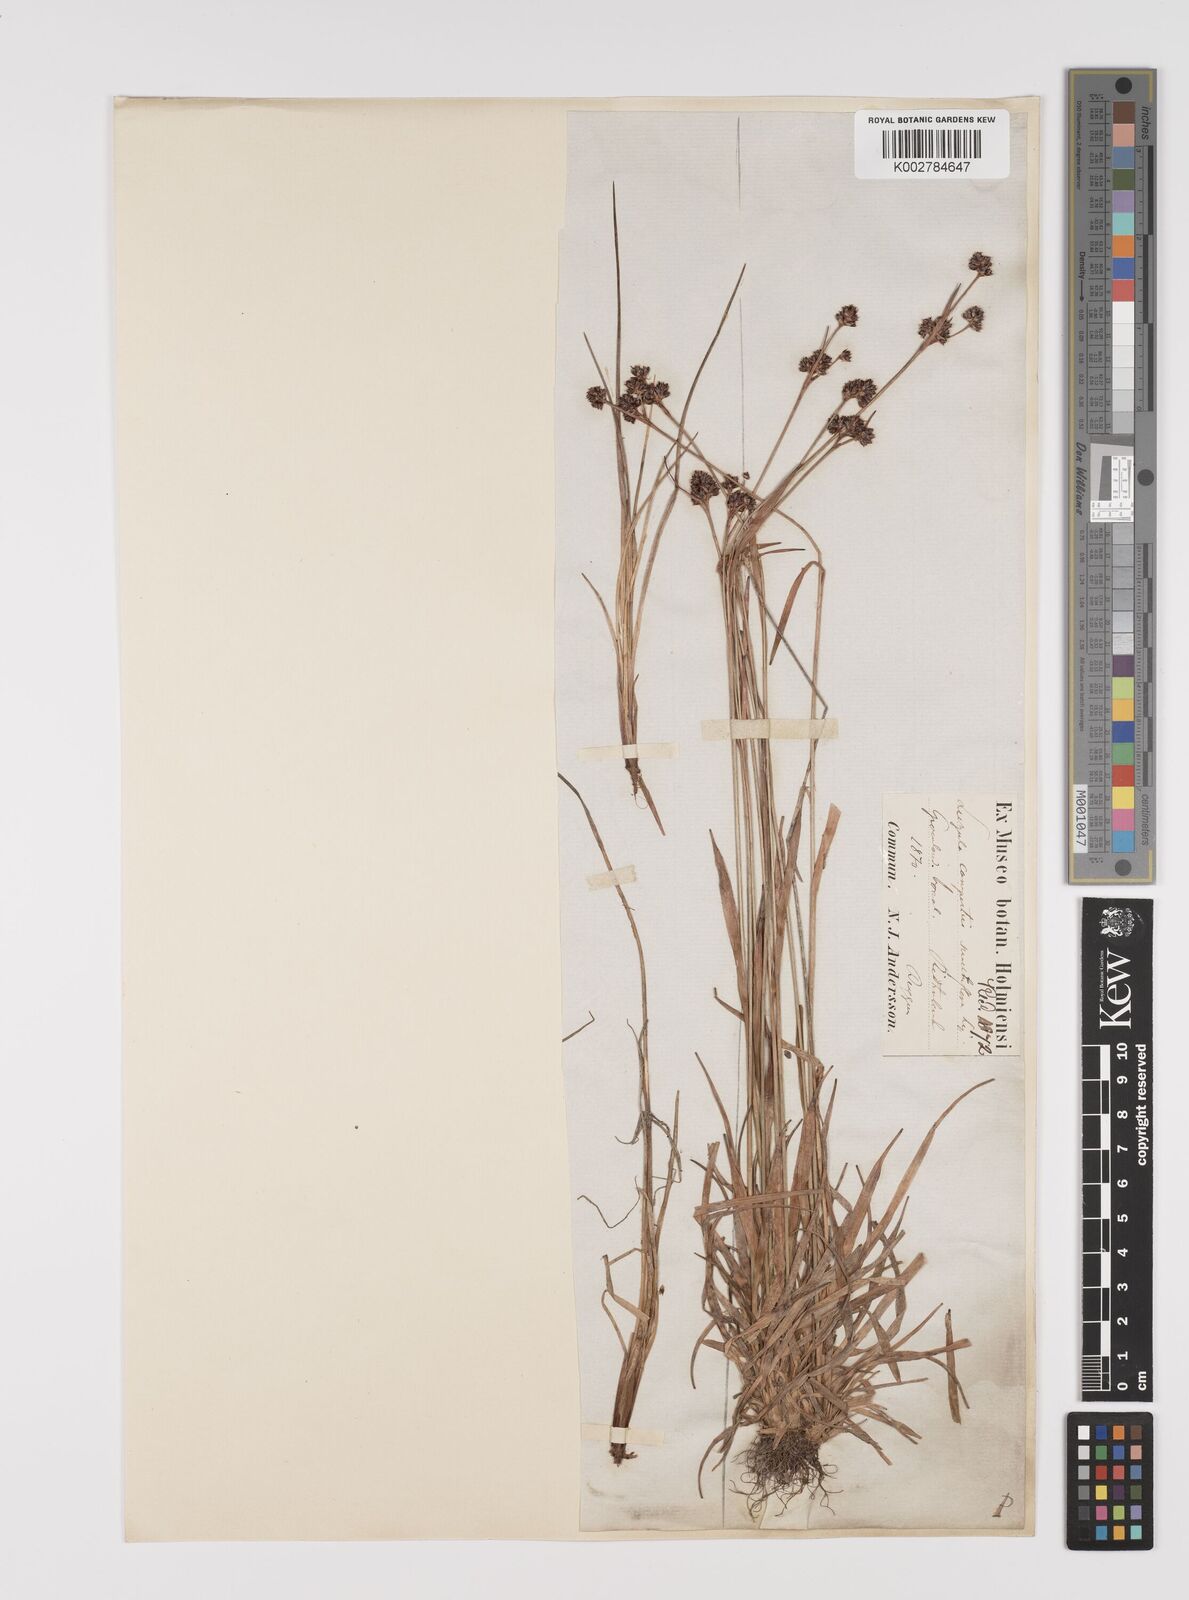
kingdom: Plantae
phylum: Tracheophyta
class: Liliopsida
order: Poales
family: Juncaceae
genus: Luzula
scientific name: Luzula campestris
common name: Field wood-rush
